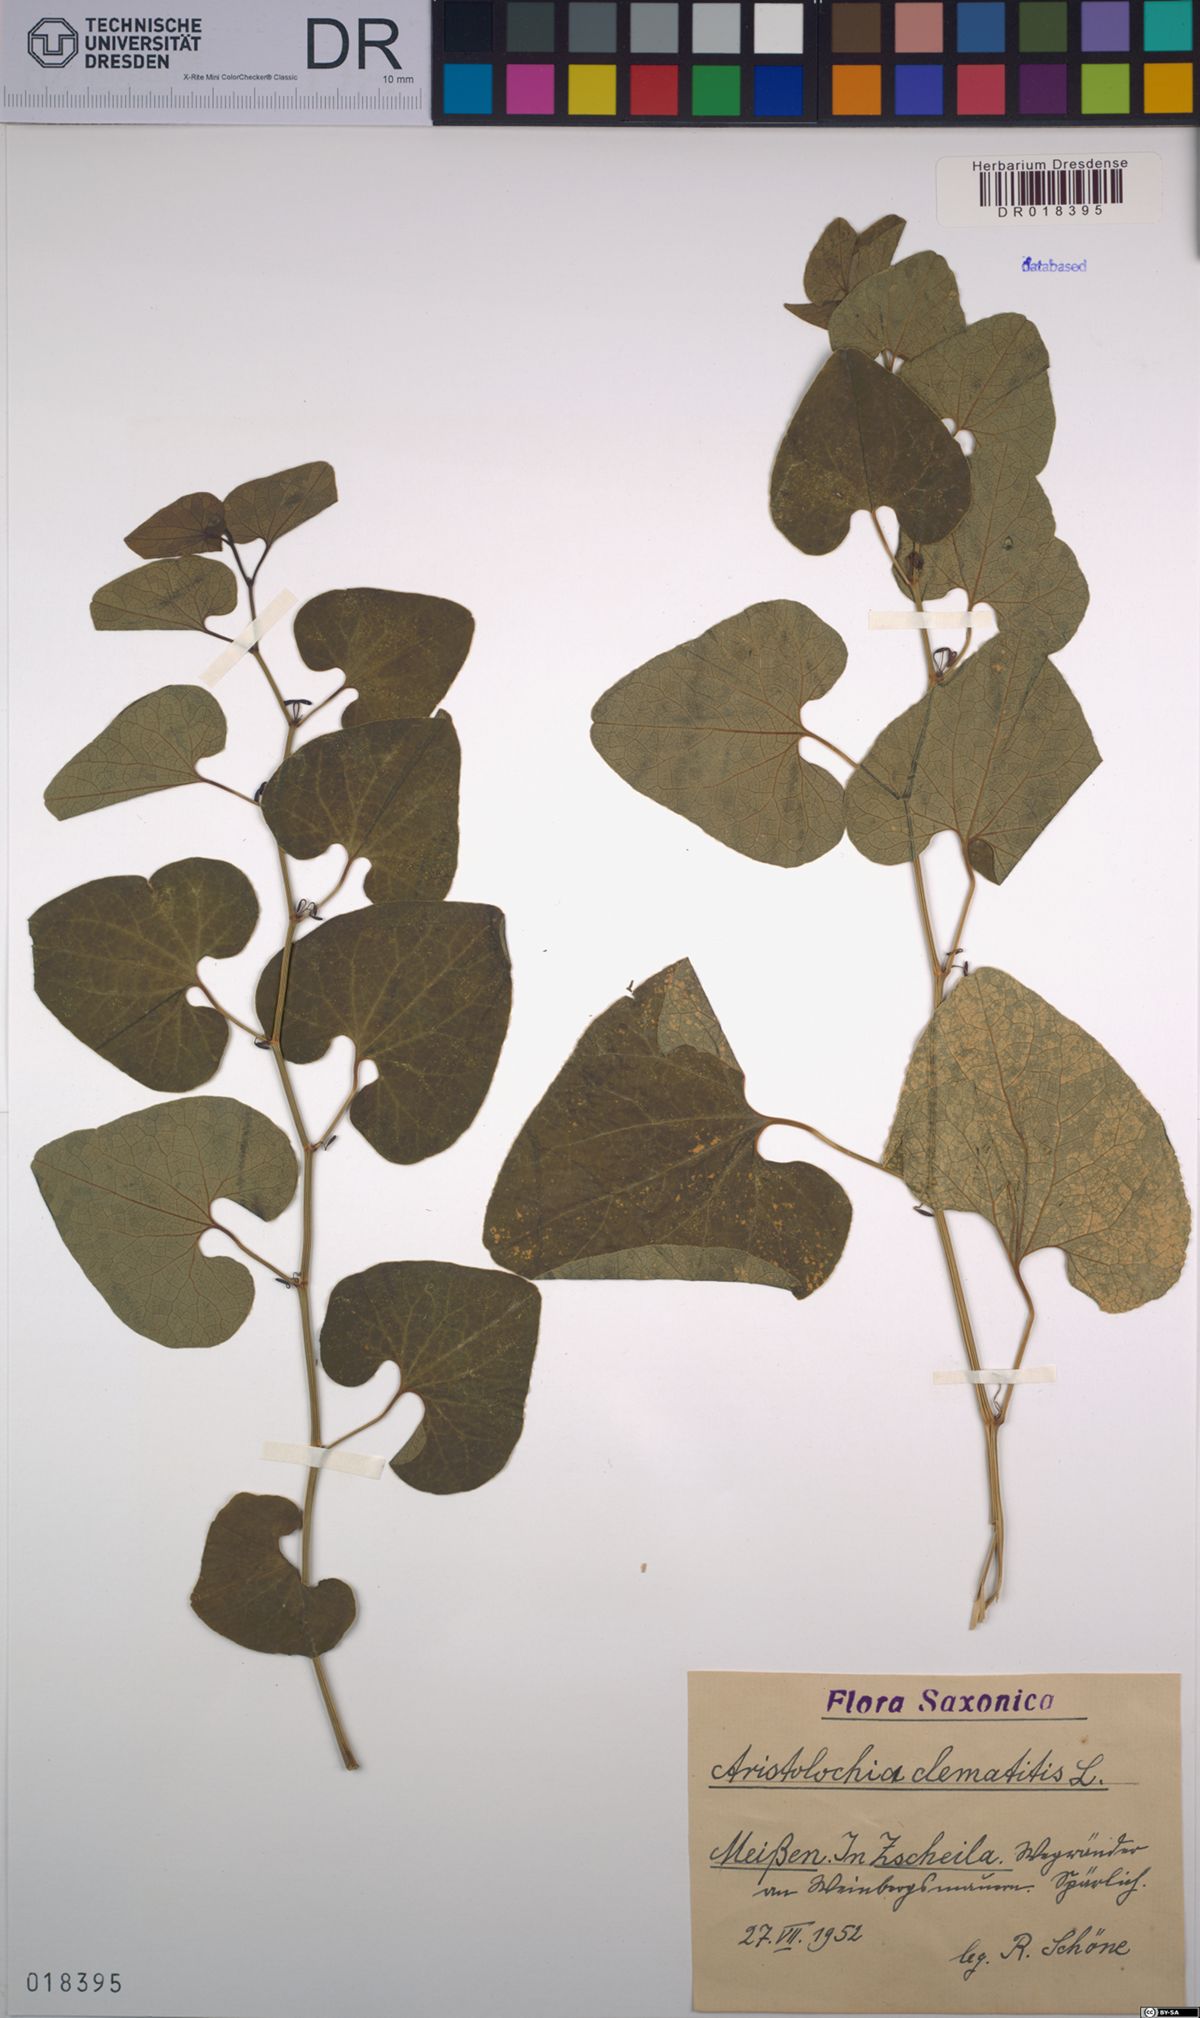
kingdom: Plantae
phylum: Tracheophyta
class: Magnoliopsida
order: Piperales
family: Aristolochiaceae
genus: Aristolochia
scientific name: Aristolochia clematitis
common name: Birthwort
